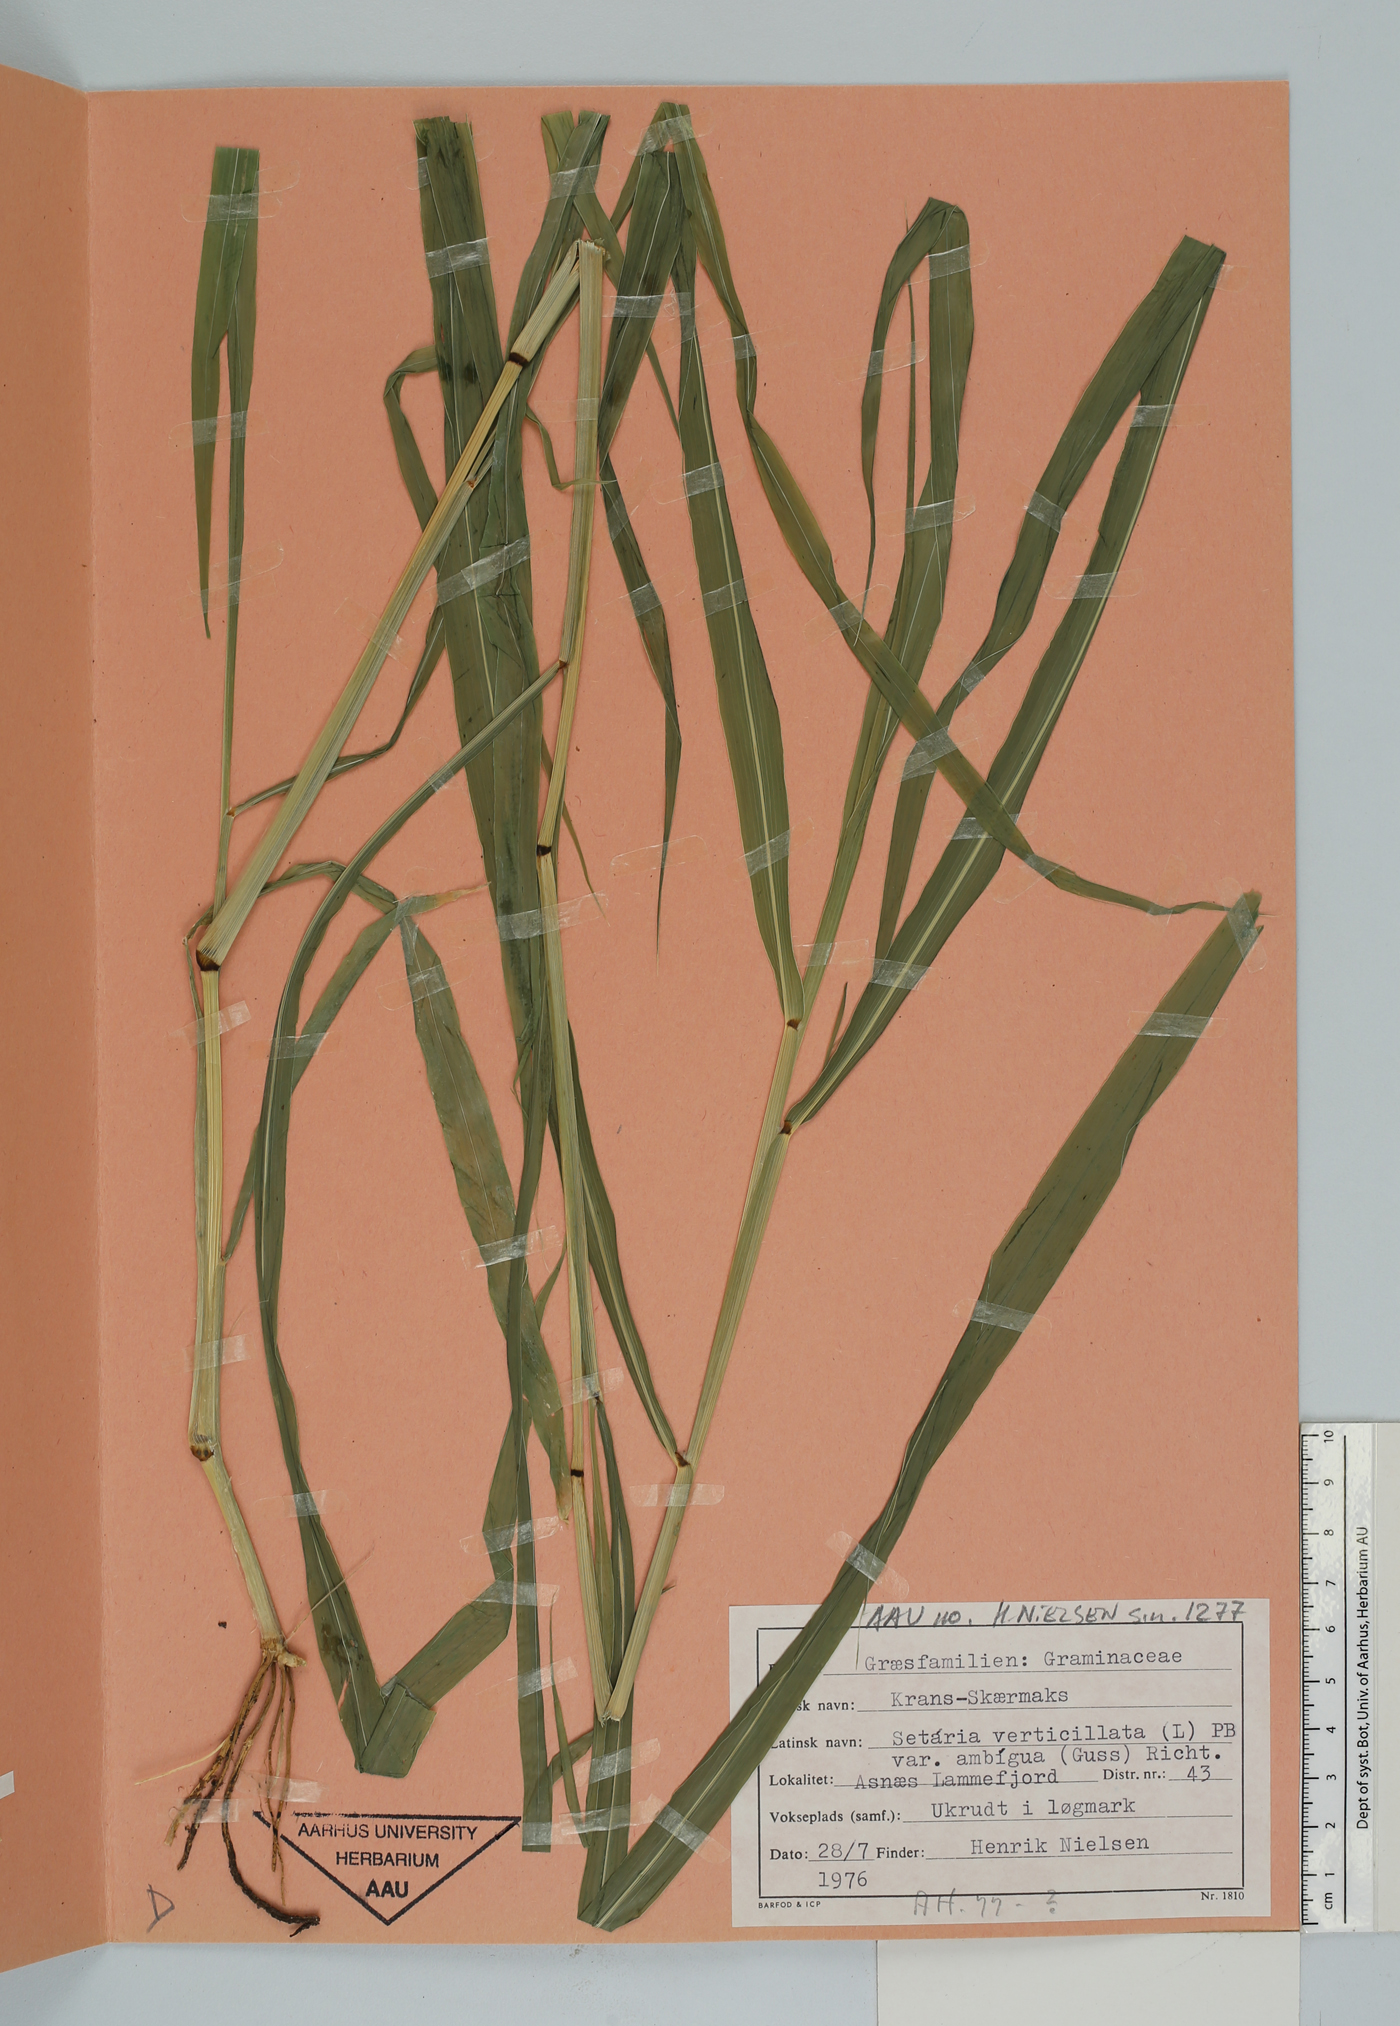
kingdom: Plantae
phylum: Tracheophyta
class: Liliopsida
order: Poales
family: Poaceae
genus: Setaria
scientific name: Setaria verticillata
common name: Hooked bristlegrass
